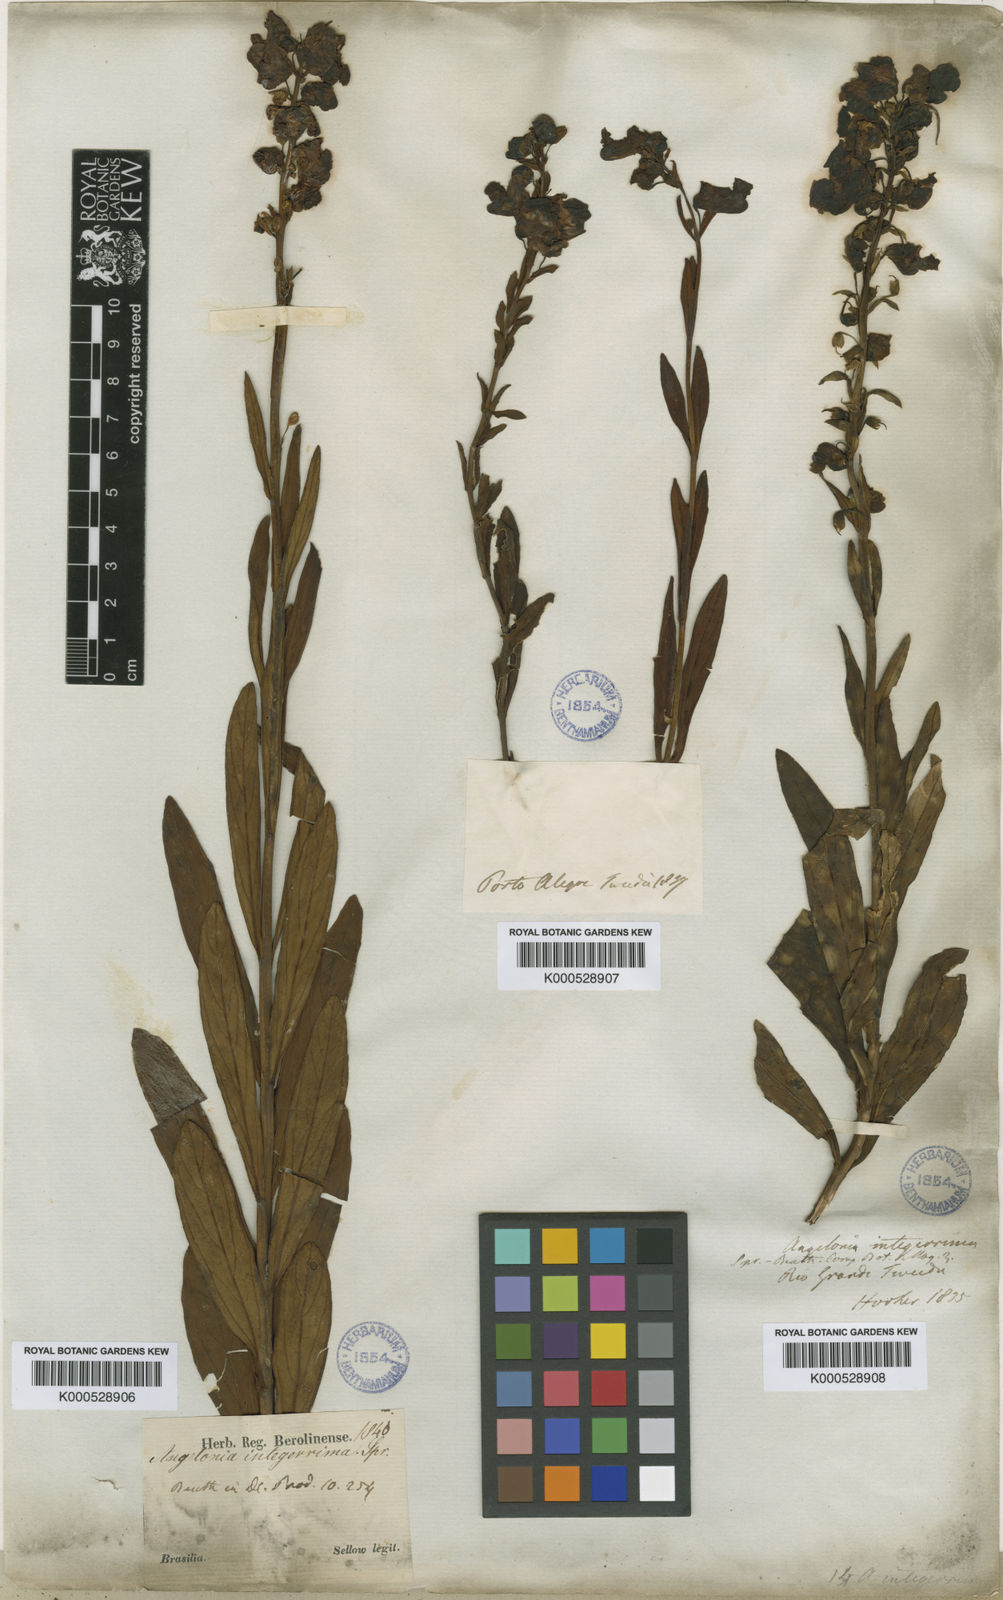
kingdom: Plantae
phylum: Tracheophyta
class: Magnoliopsida
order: Lamiales
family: Plantaginaceae
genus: Angelonia
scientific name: Angelonia integerrima
